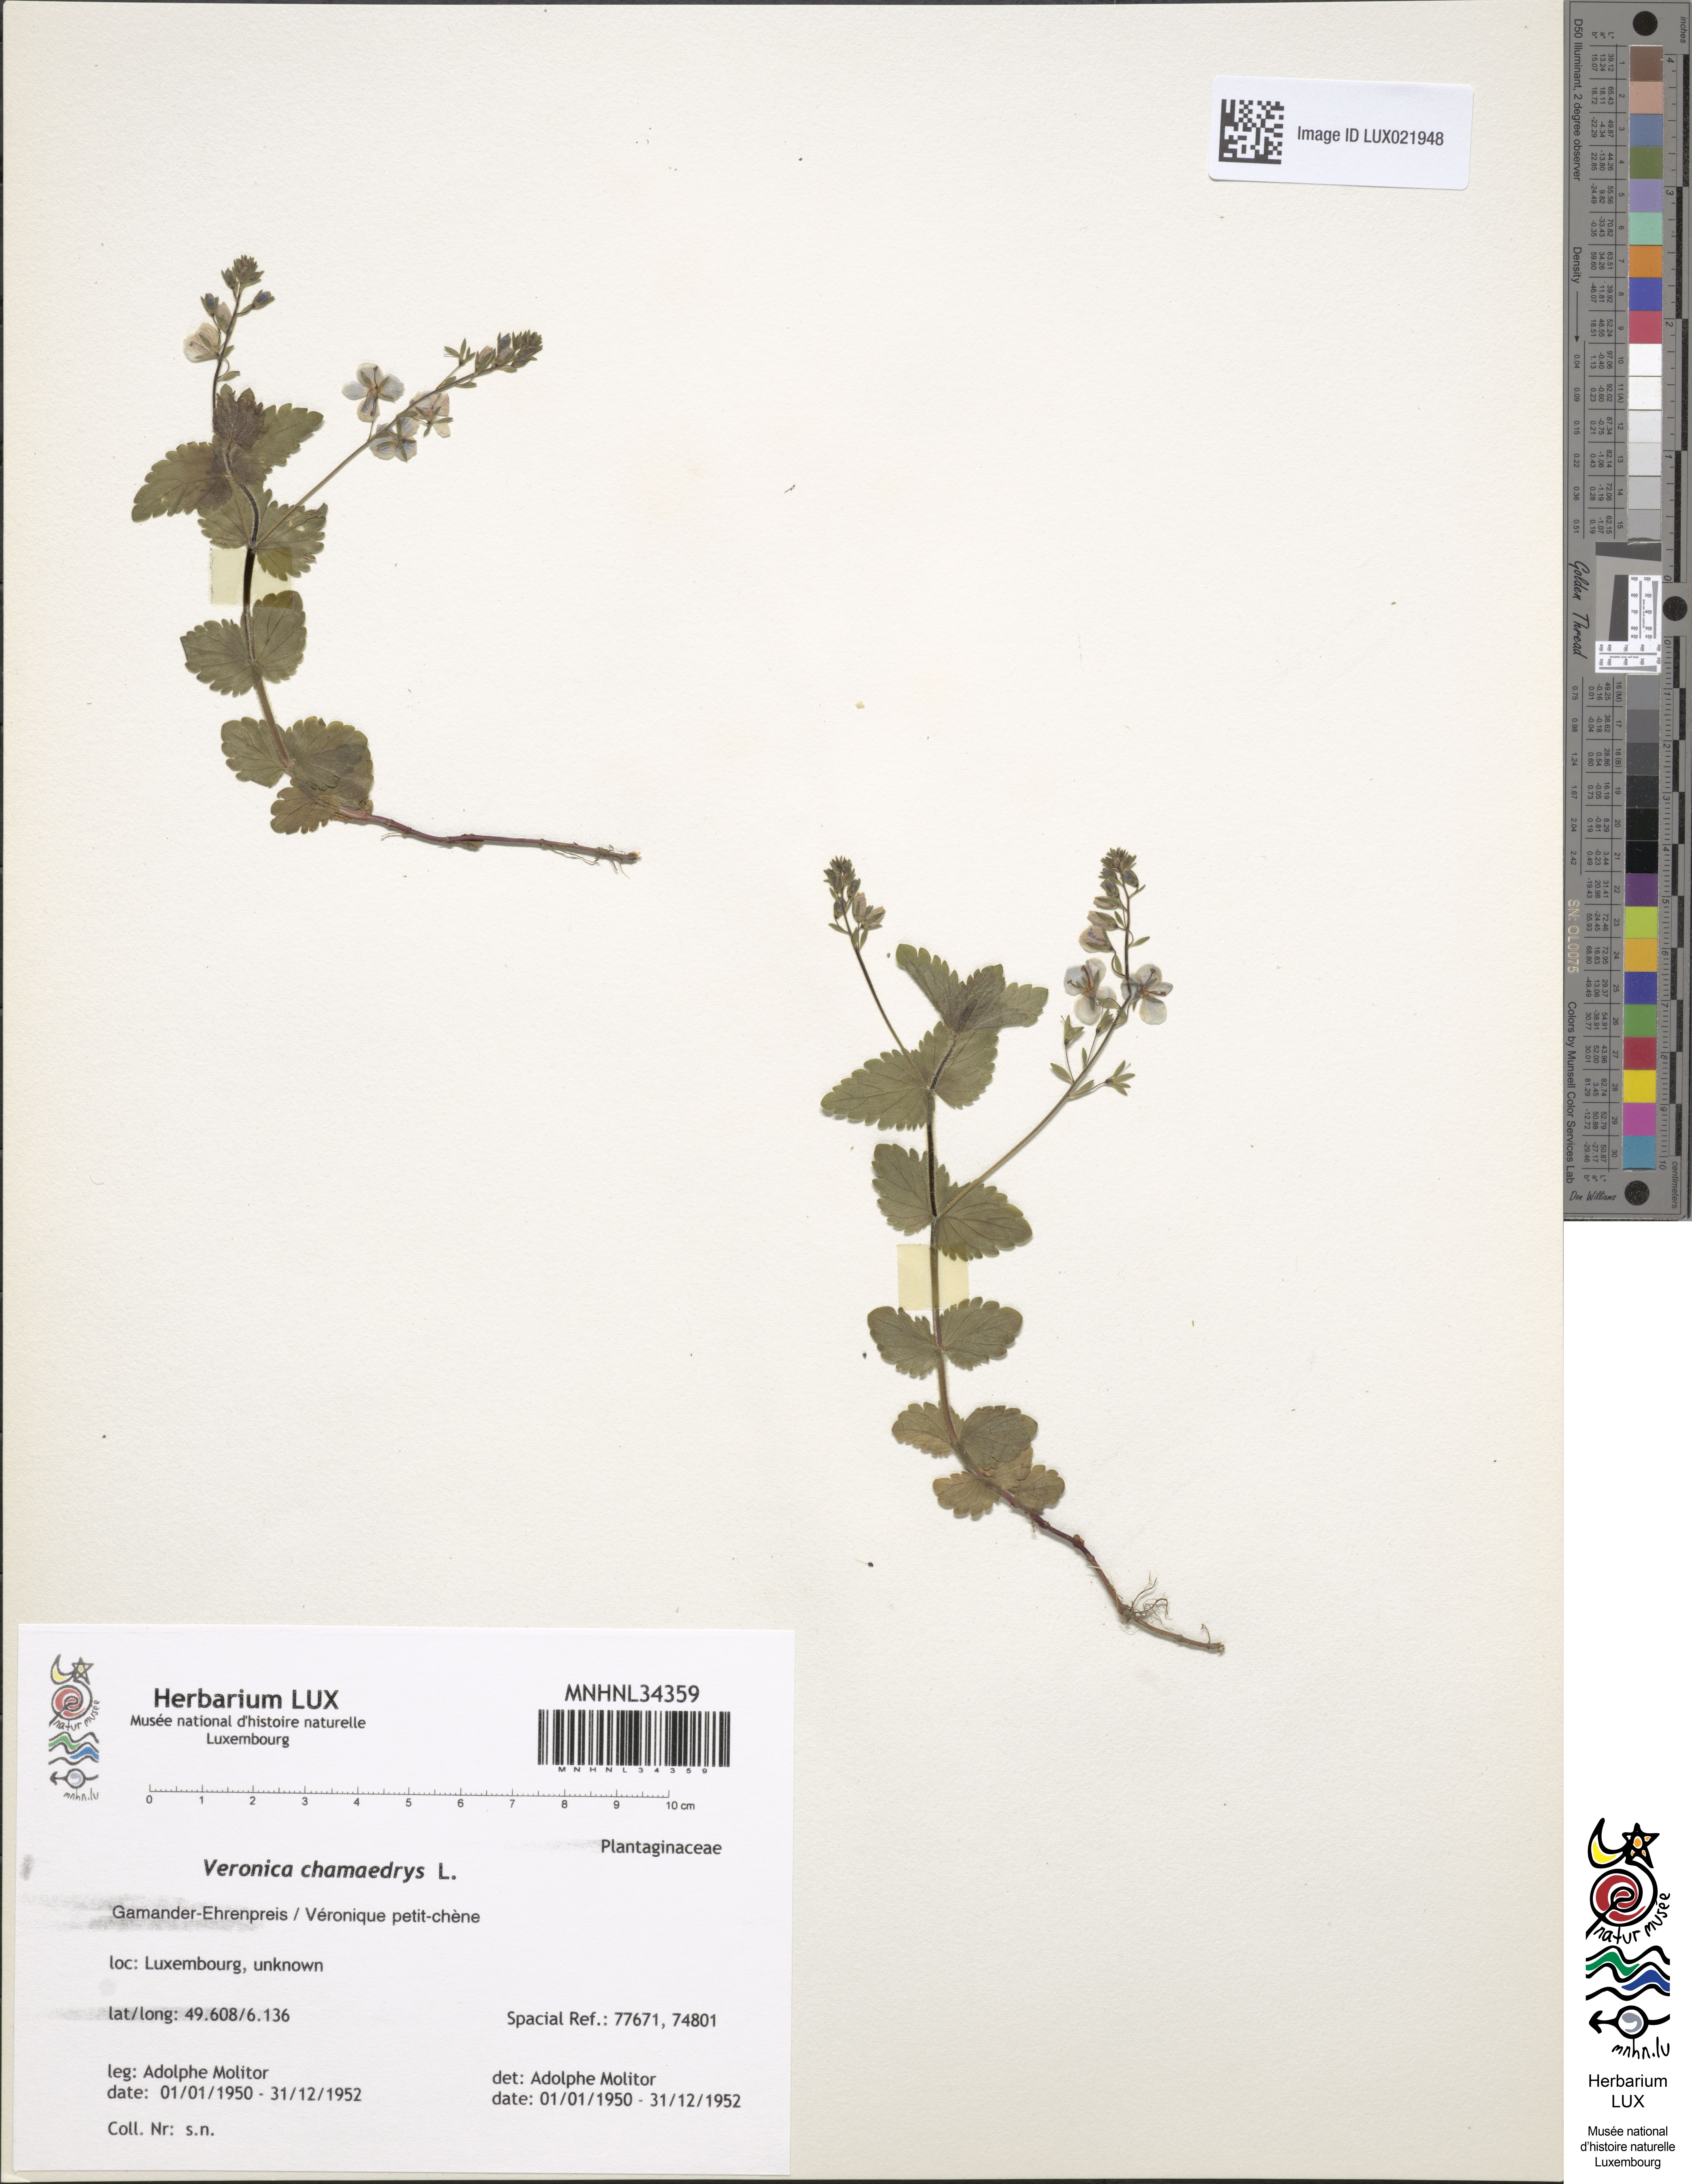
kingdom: Plantae
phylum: Tracheophyta
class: Magnoliopsida
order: Lamiales
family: Plantaginaceae
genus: Veronica
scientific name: Veronica chamaedrys
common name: Germander speedwell
